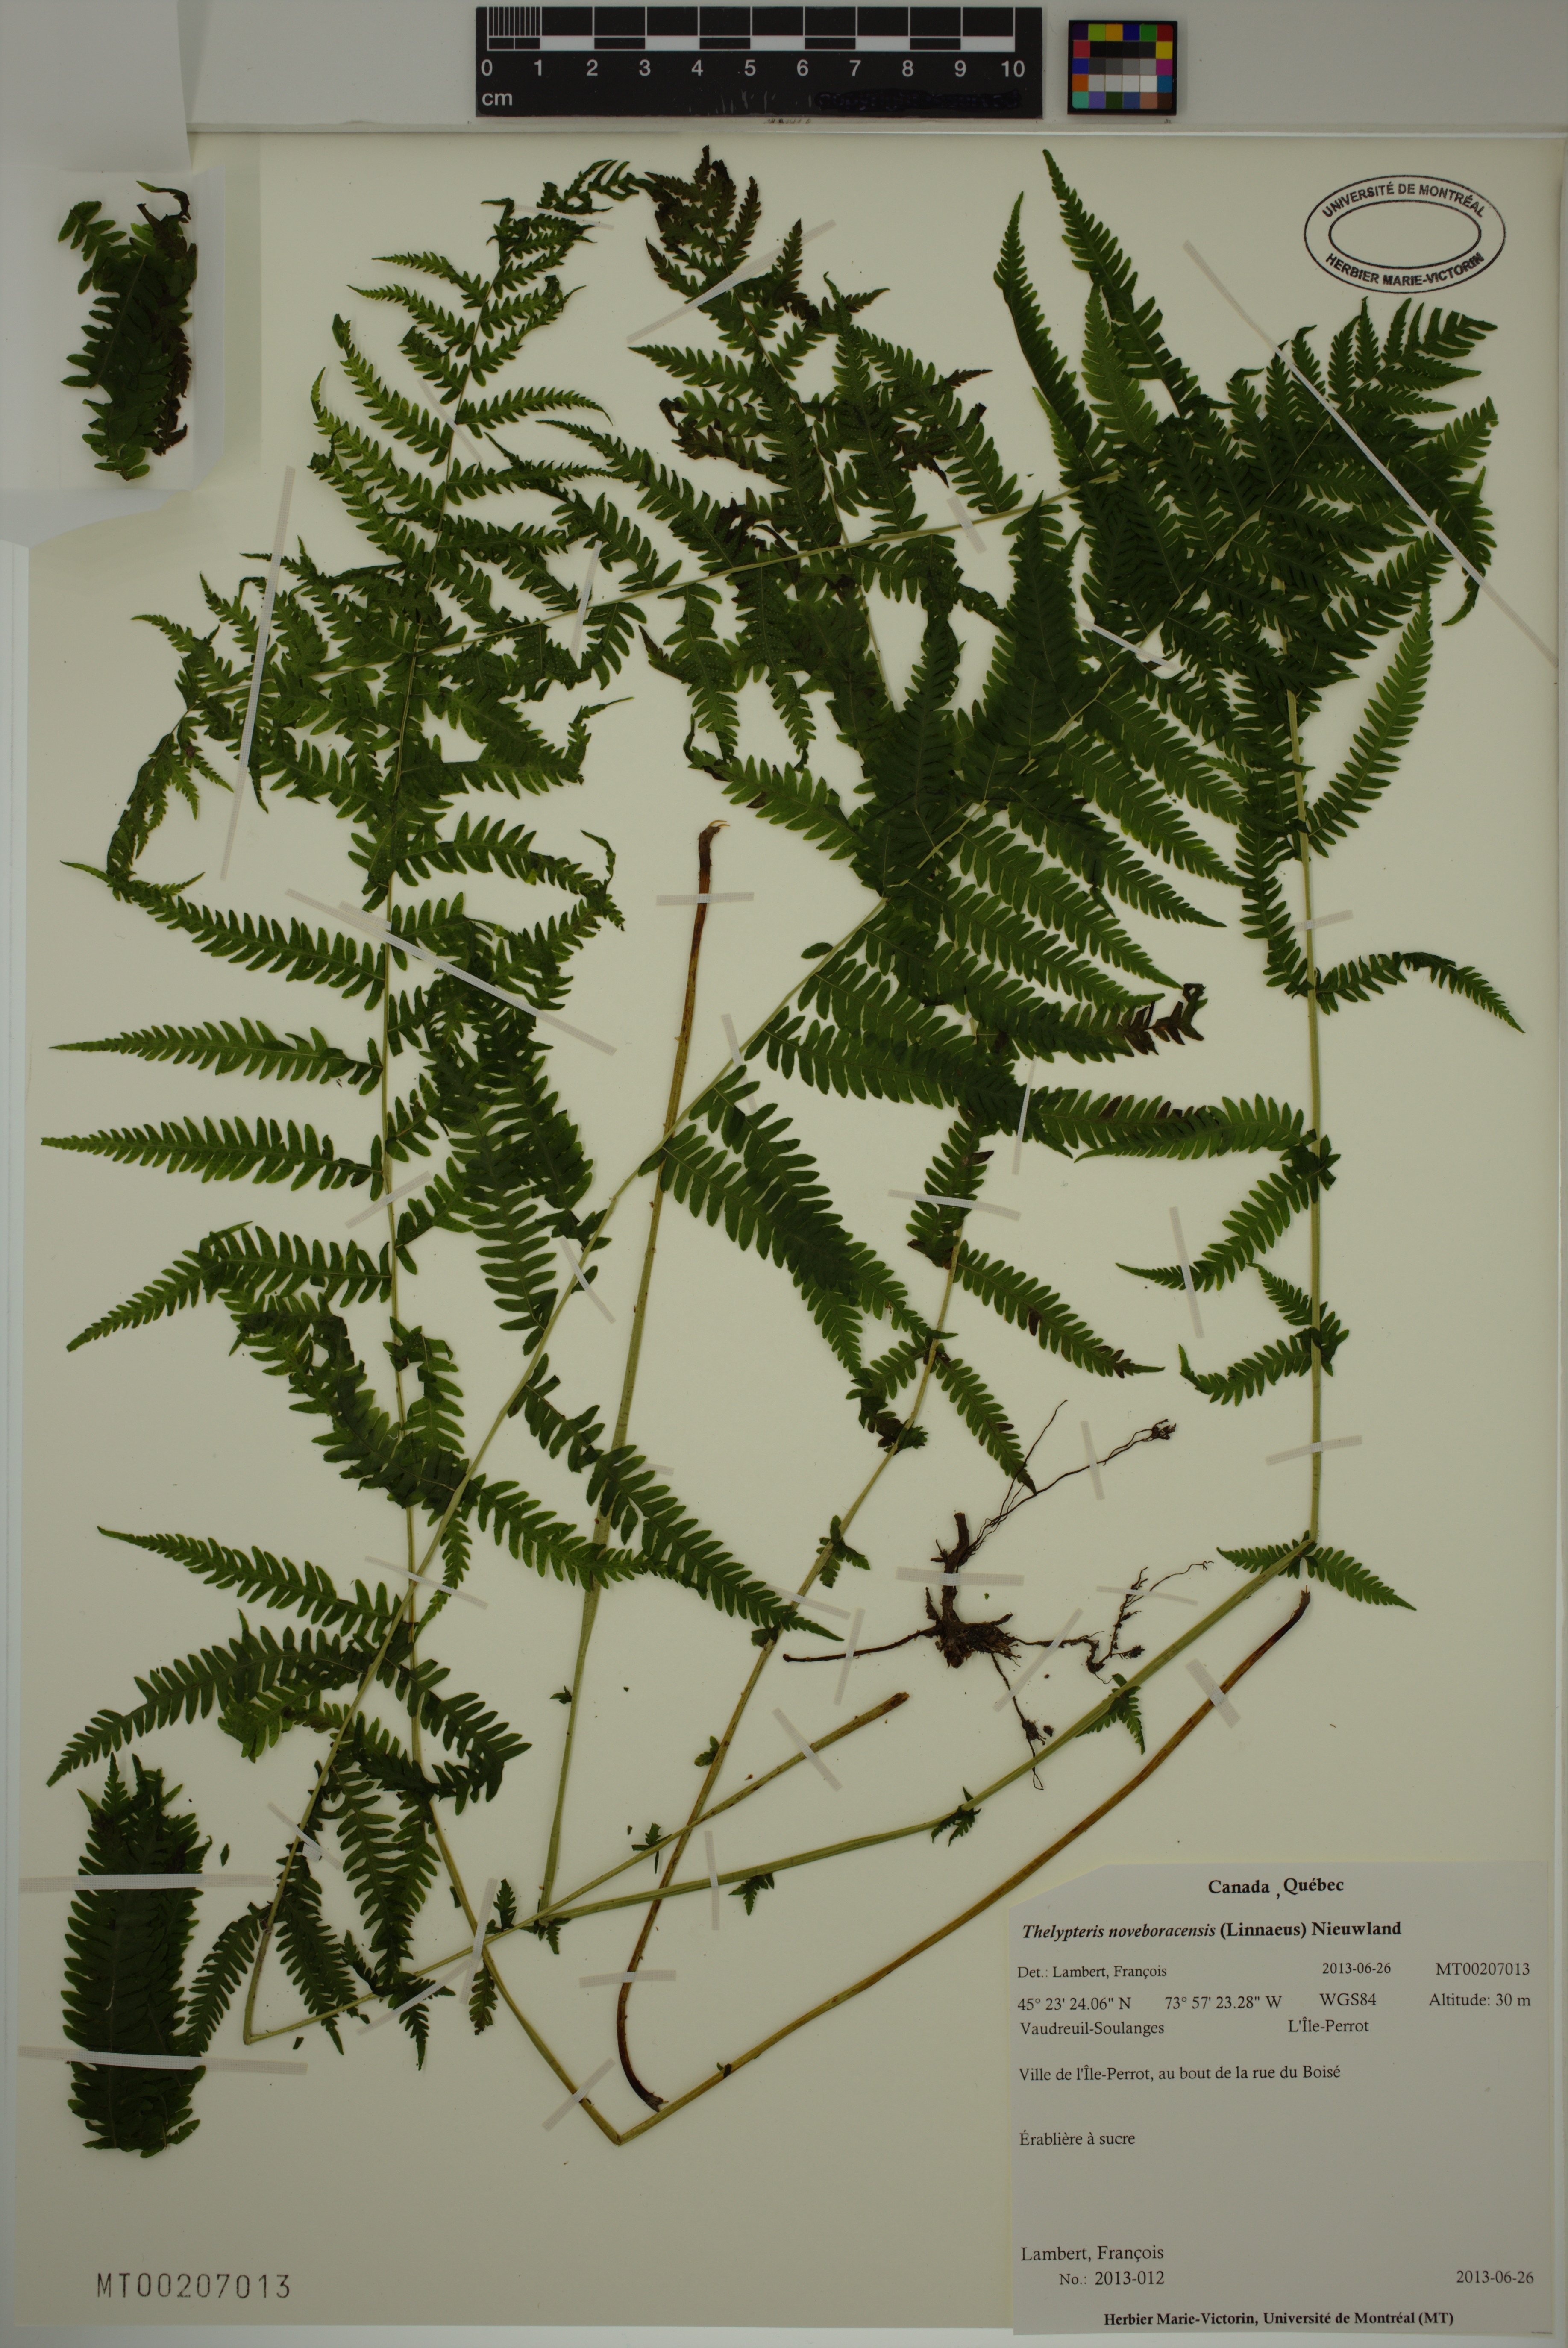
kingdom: Plantae
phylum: Tracheophyta
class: Polypodiopsida
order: Polypodiales
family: Thelypteridaceae
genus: Amauropelta
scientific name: Amauropelta noveboracensis
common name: New york fern
